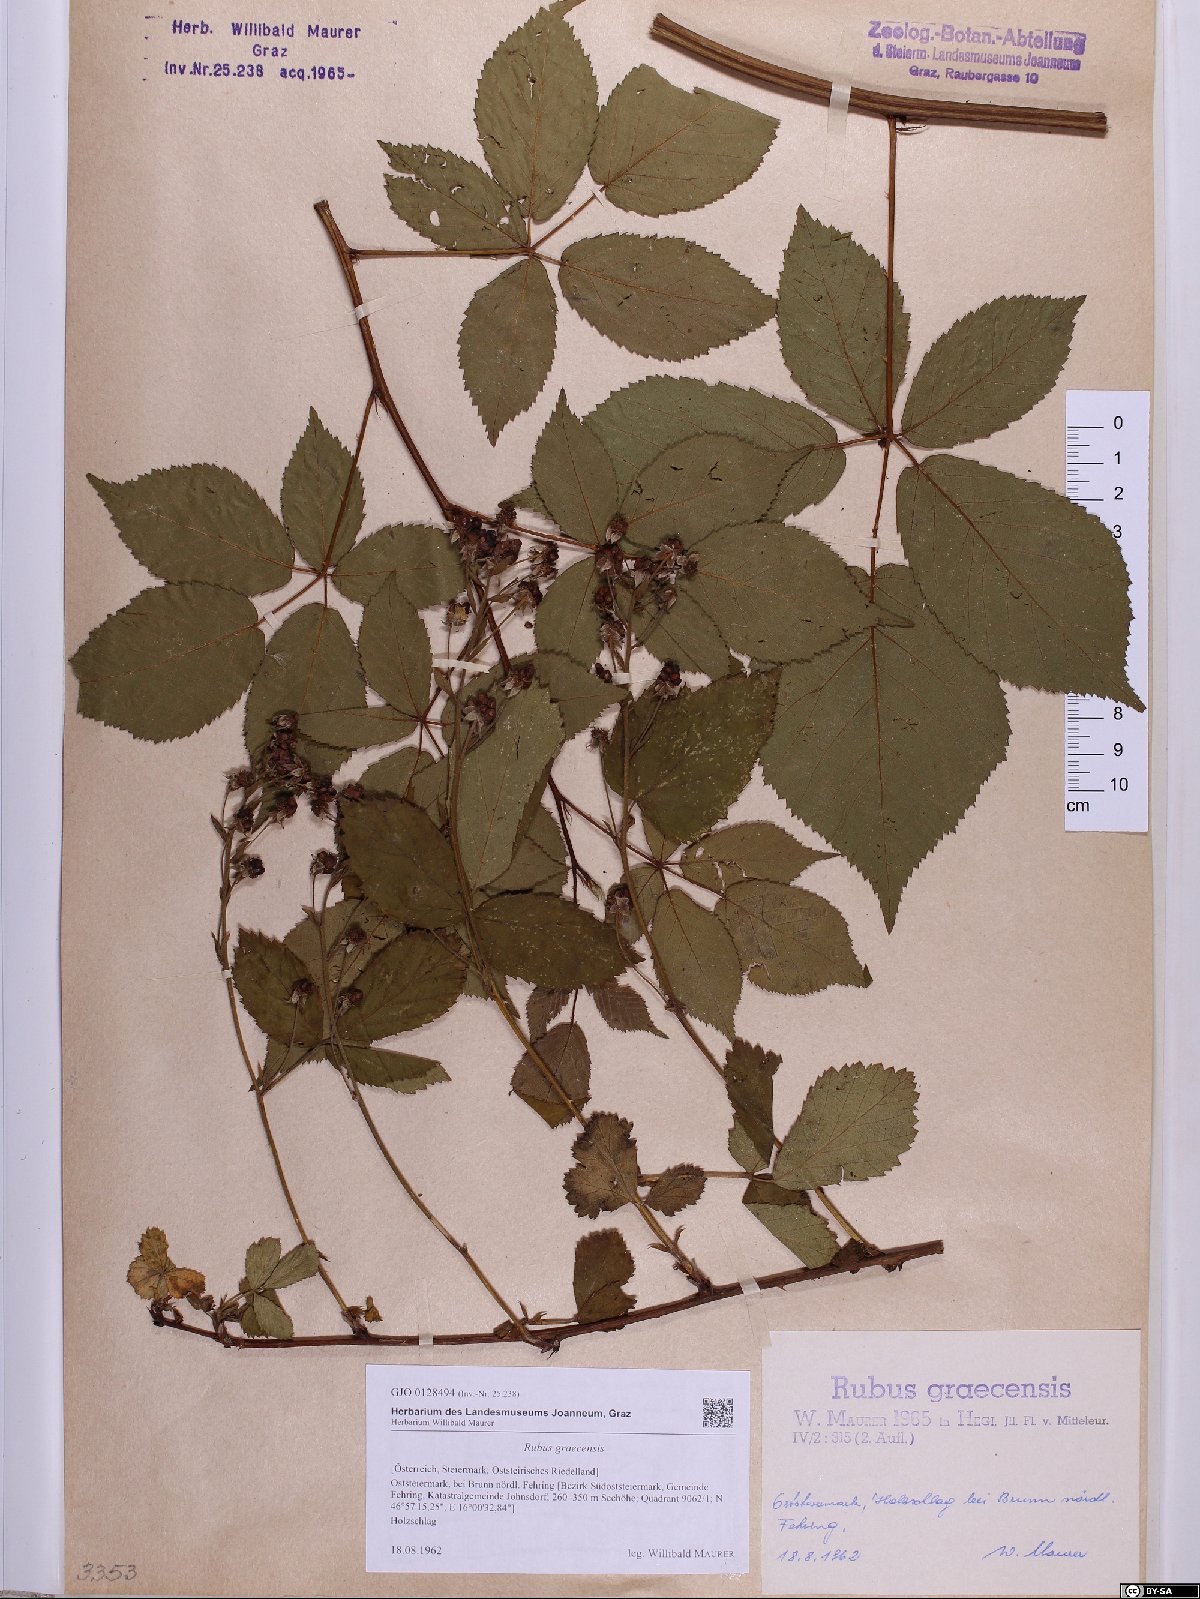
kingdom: Plantae
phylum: Tracheophyta
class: Magnoliopsida
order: Rosales
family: Rosaceae
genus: Rubus
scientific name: Rubus graecensis
